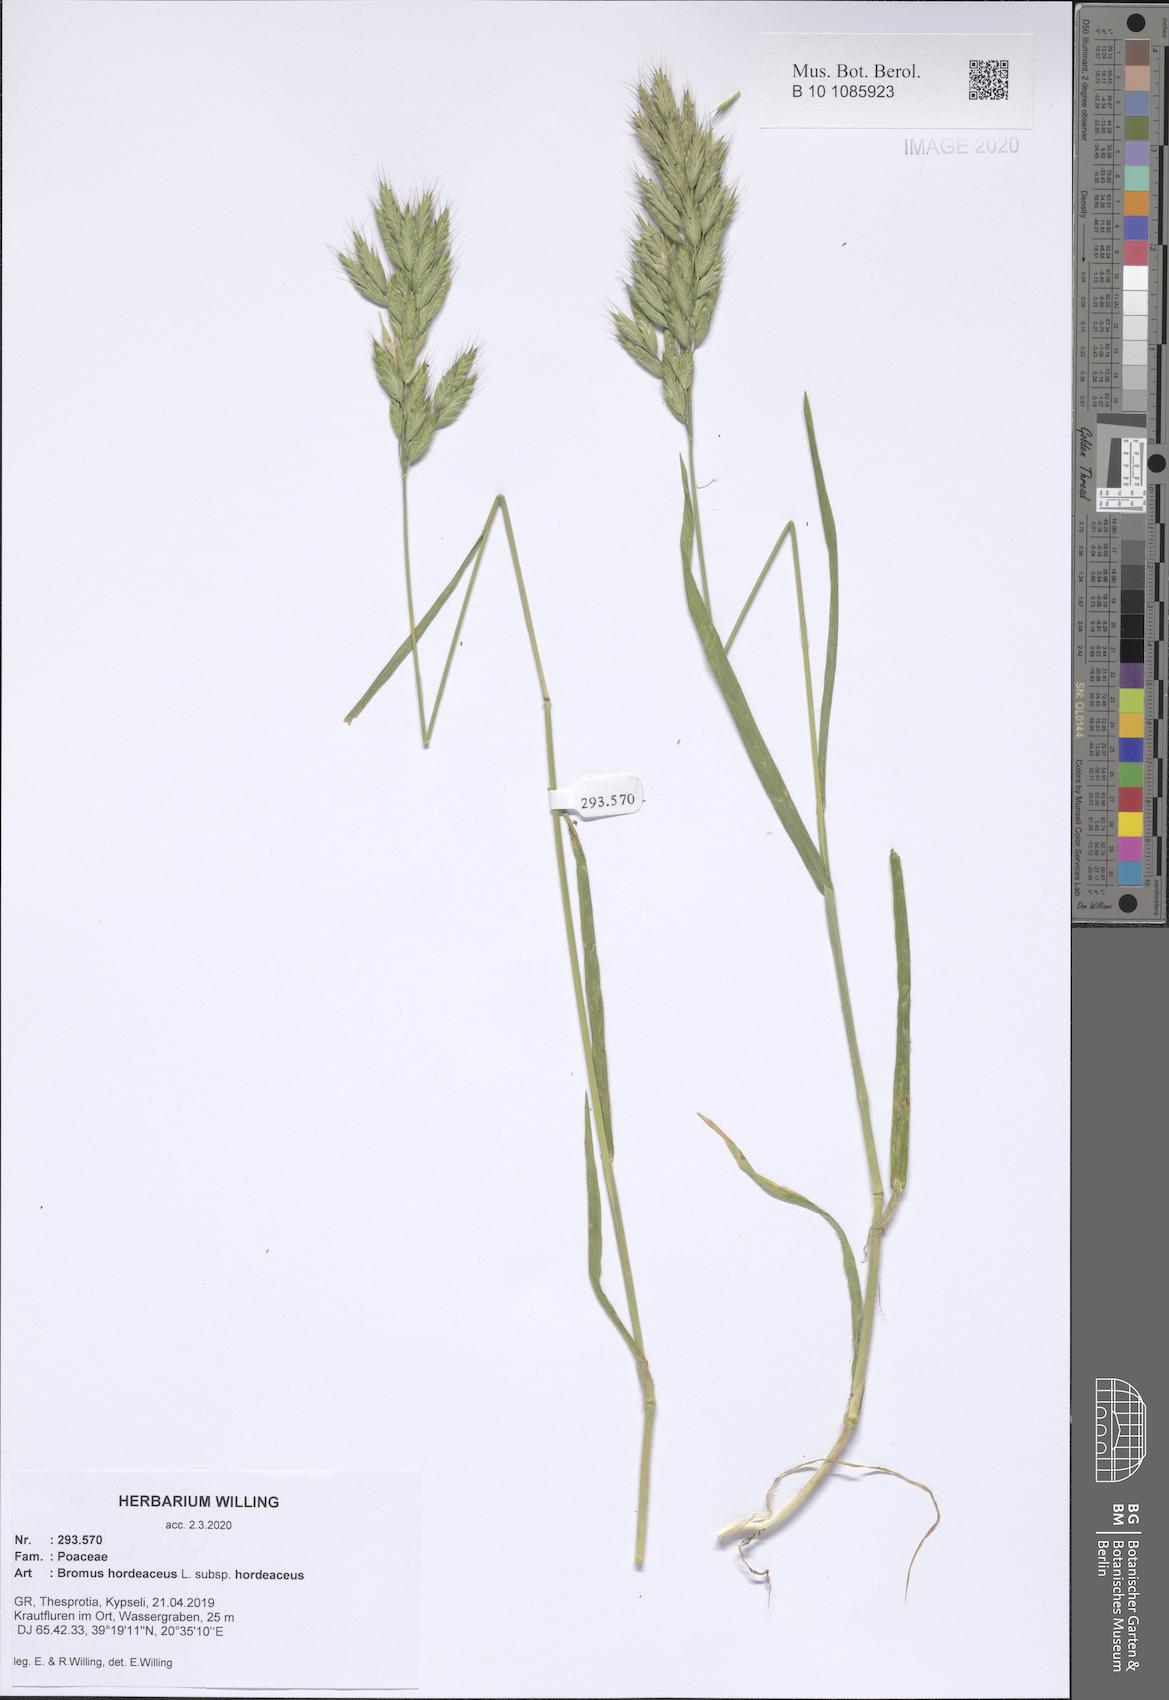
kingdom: Plantae
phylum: Tracheophyta
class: Liliopsida
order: Poales
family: Poaceae
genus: Bromus
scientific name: Bromus hordeaceus
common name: Soft brome
